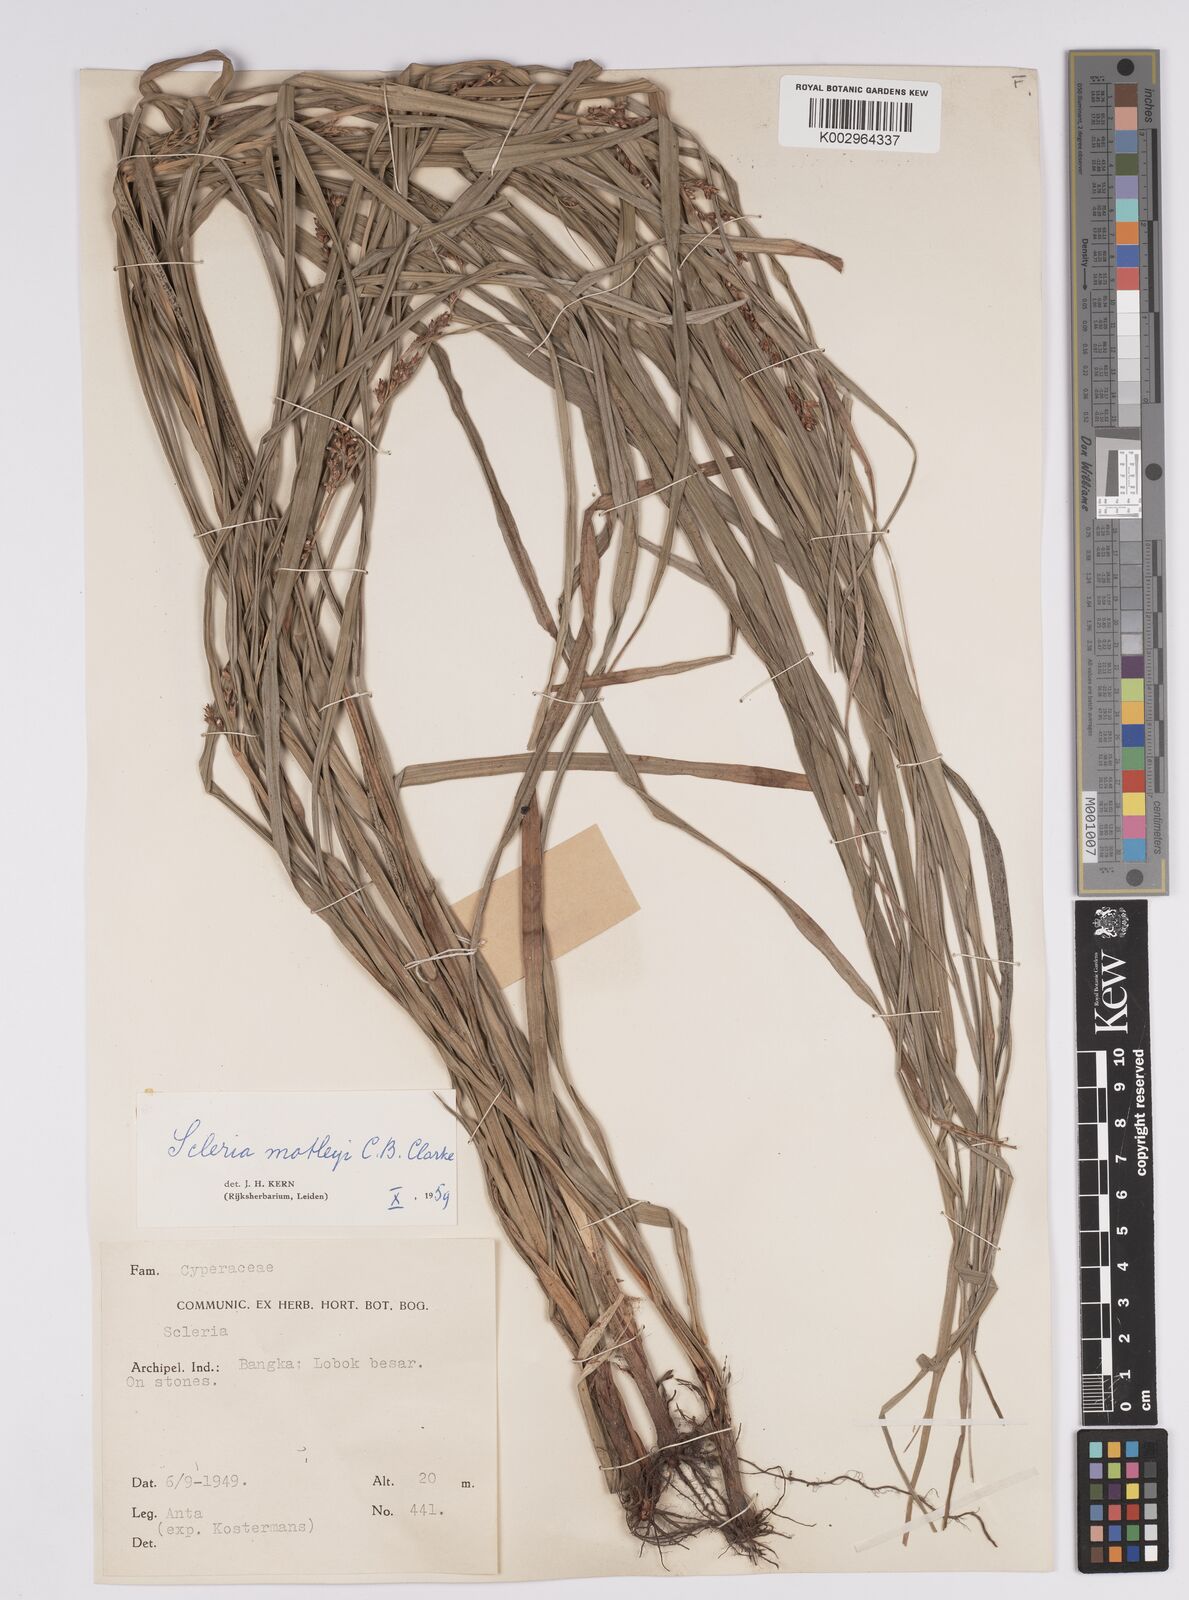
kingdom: Plantae
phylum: Tracheophyta
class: Liliopsida
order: Poales
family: Cyperaceae
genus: Scleria
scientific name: Scleria motleyi
